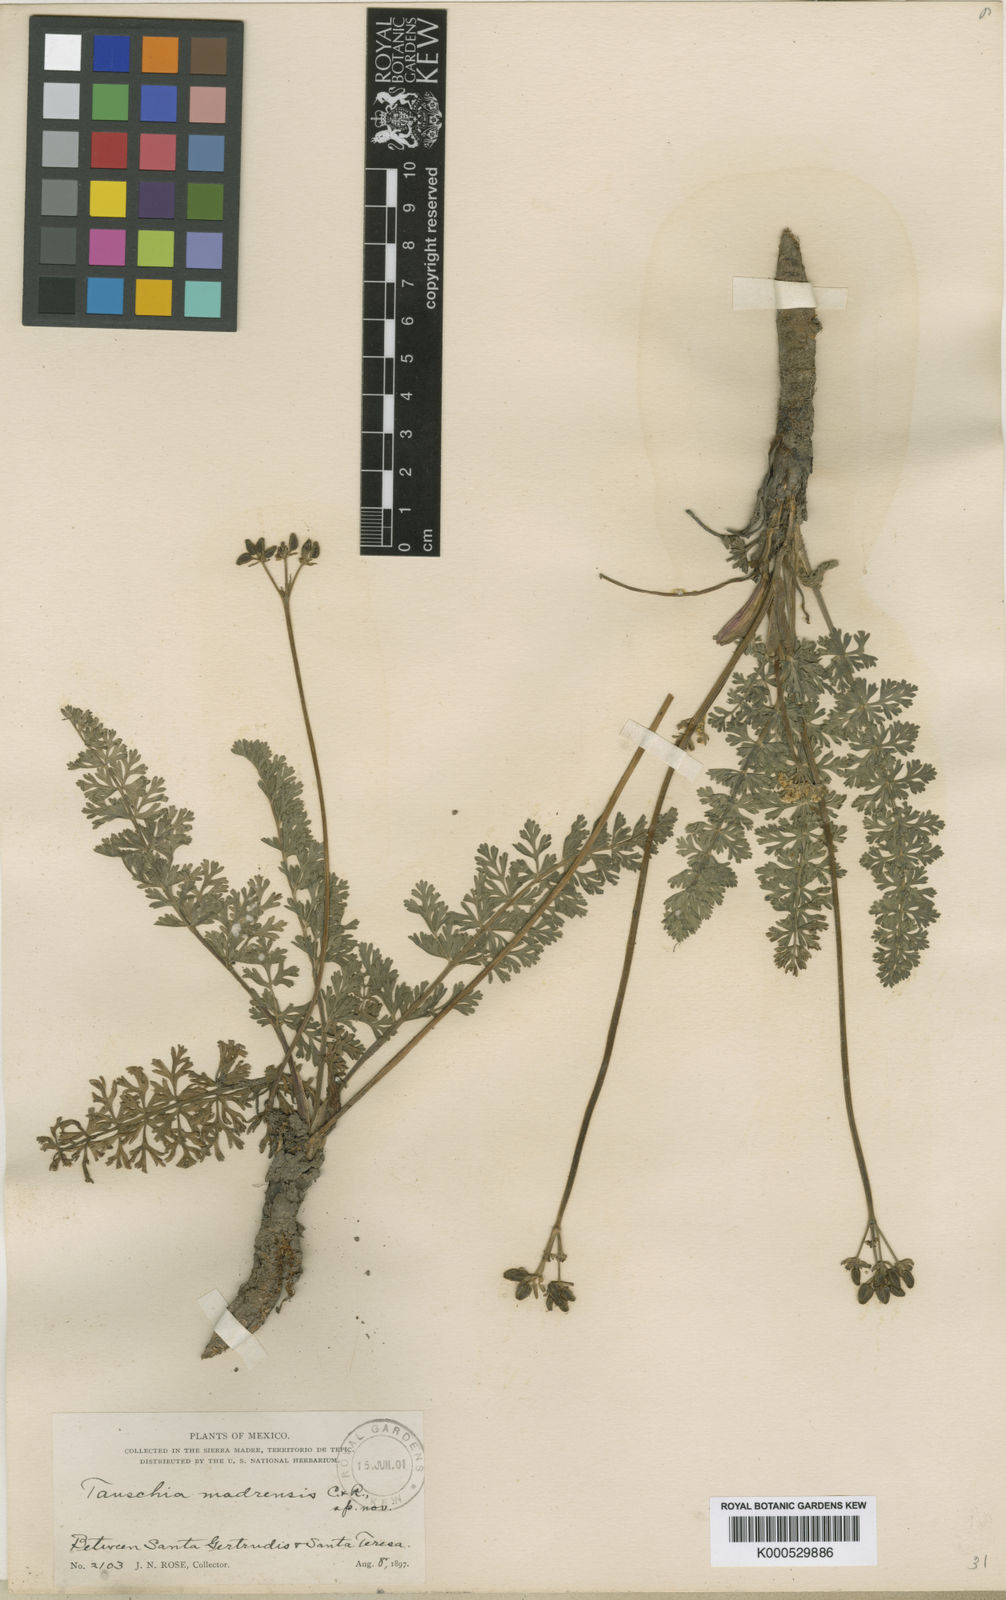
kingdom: Plantae
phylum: Tracheophyta
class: Magnoliopsida
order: Apiales
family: Apiaceae
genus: Tauschia
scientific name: Tauschia madrensis
